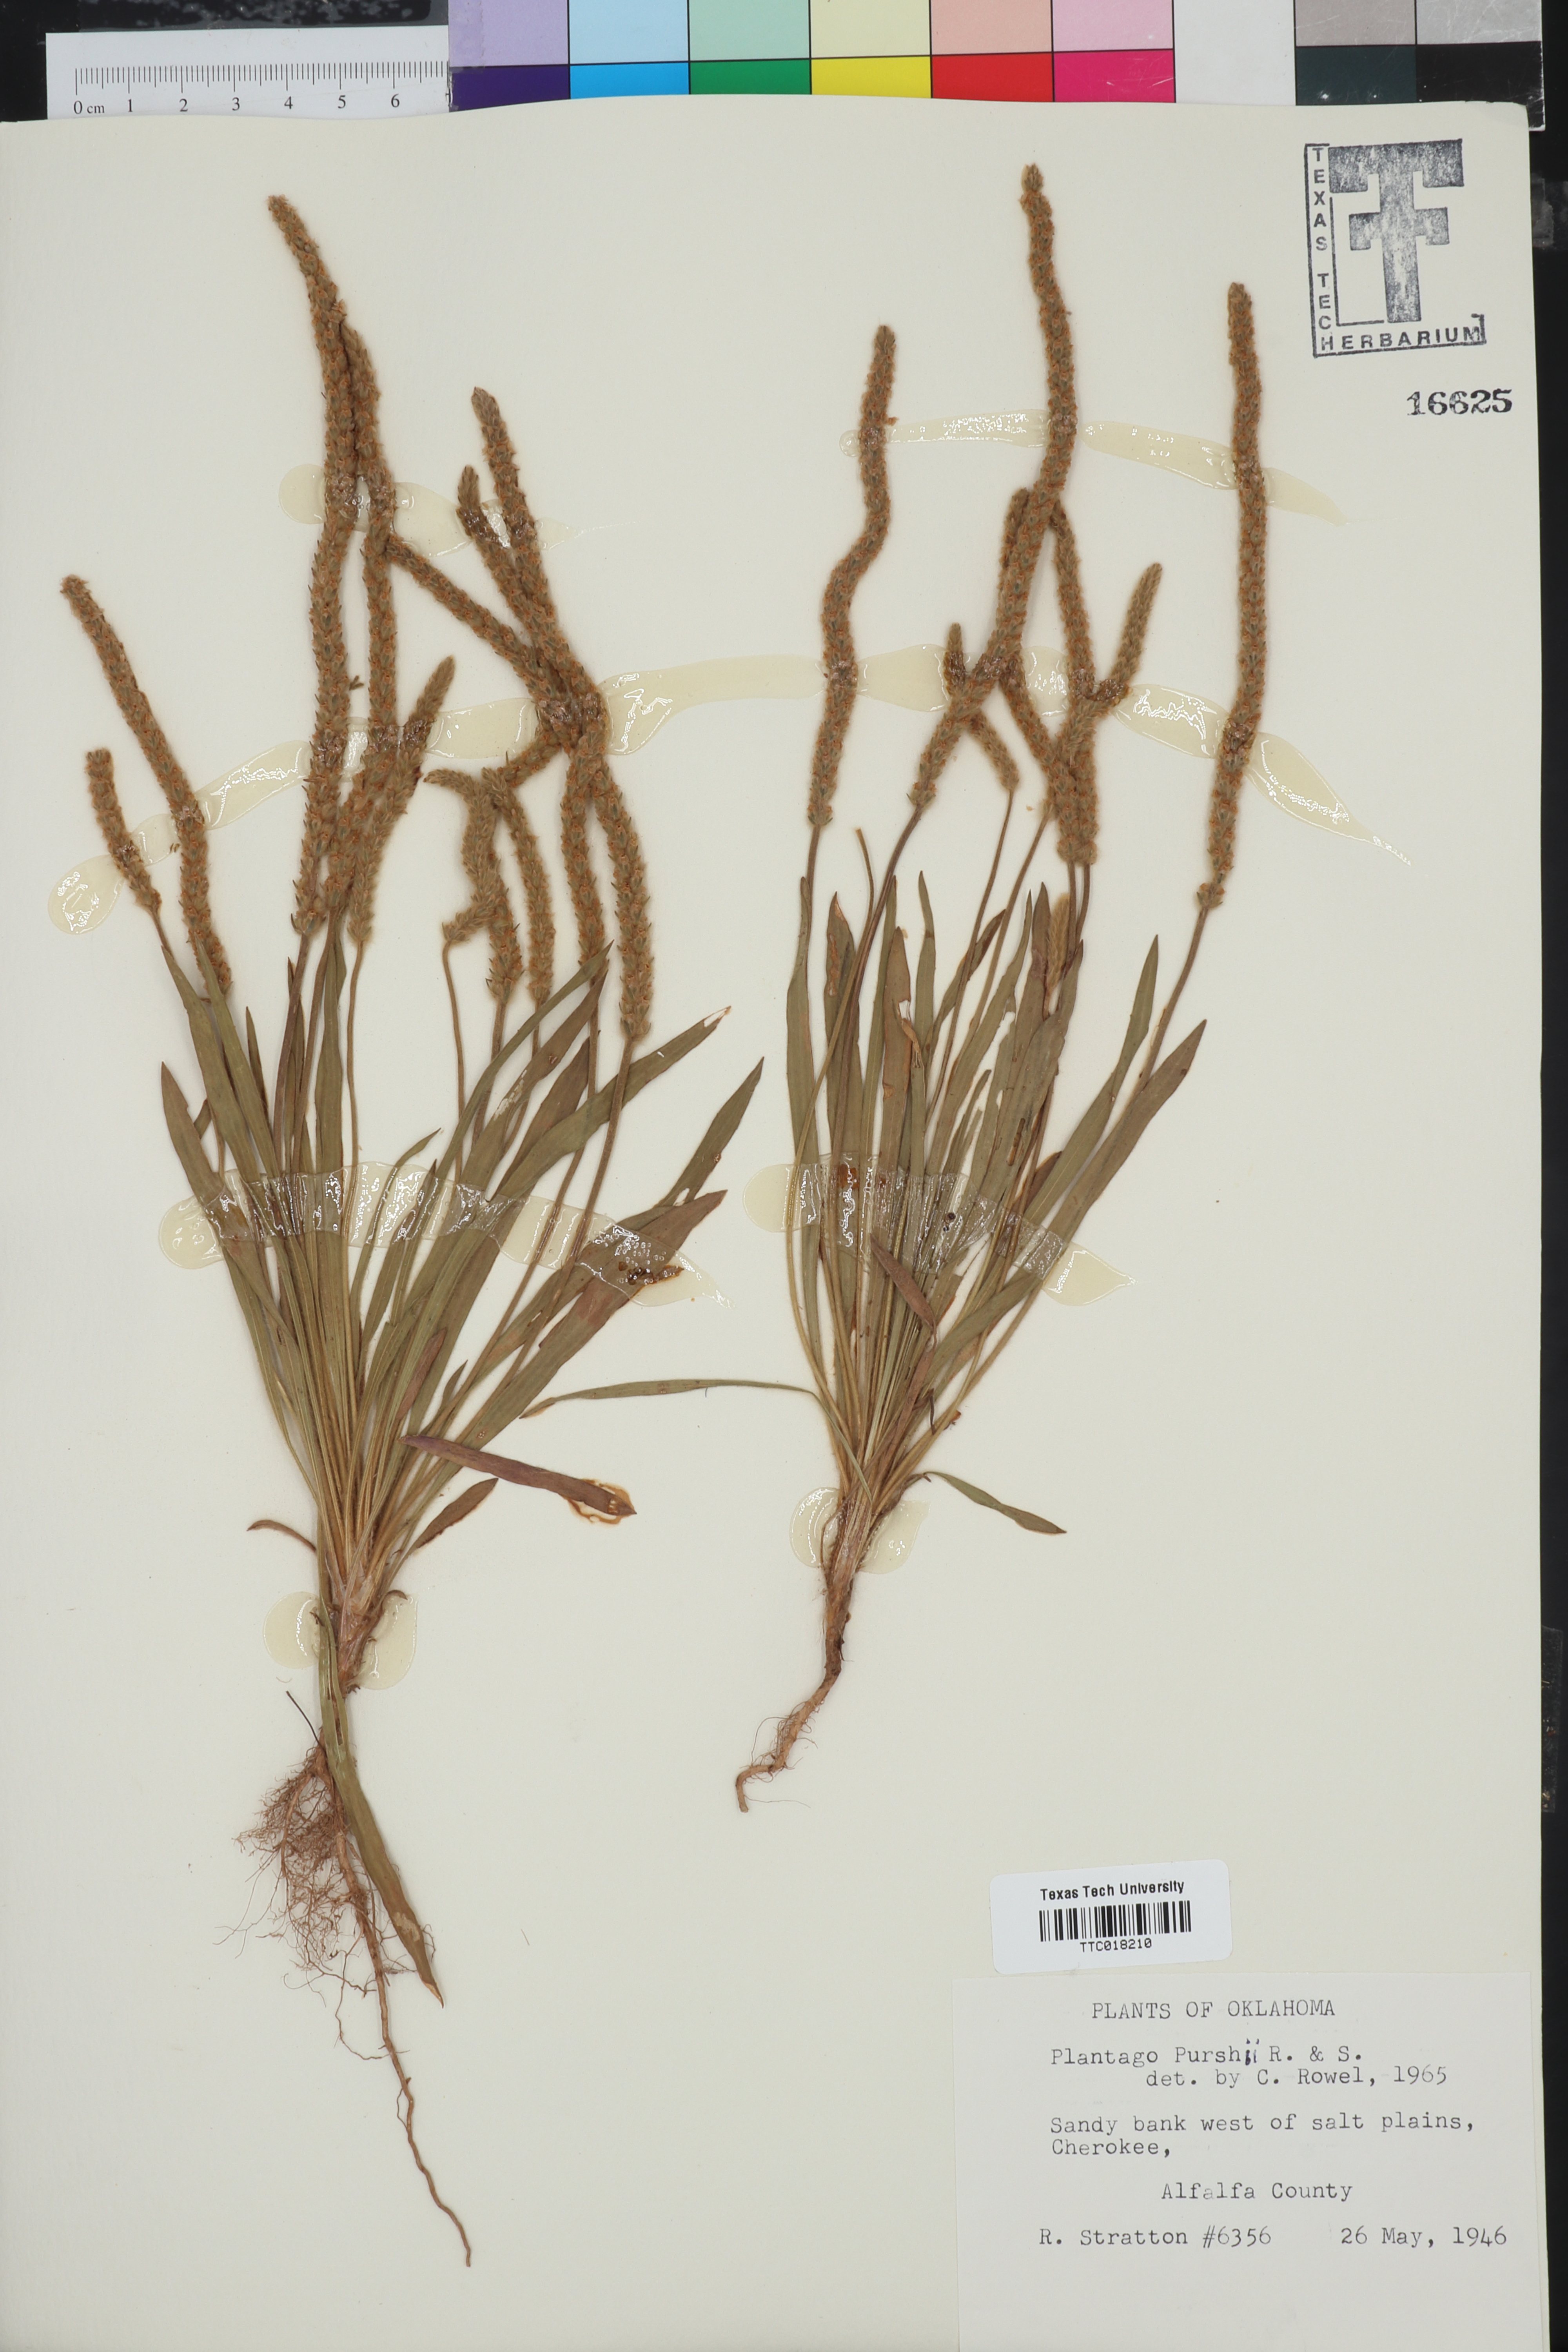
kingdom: Plantae
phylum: Tracheophyta
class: Magnoliopsida
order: Lamiales
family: Plantaginaceae
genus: Plantago
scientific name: Plantago patagonica
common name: Patagonia indian-wheat
